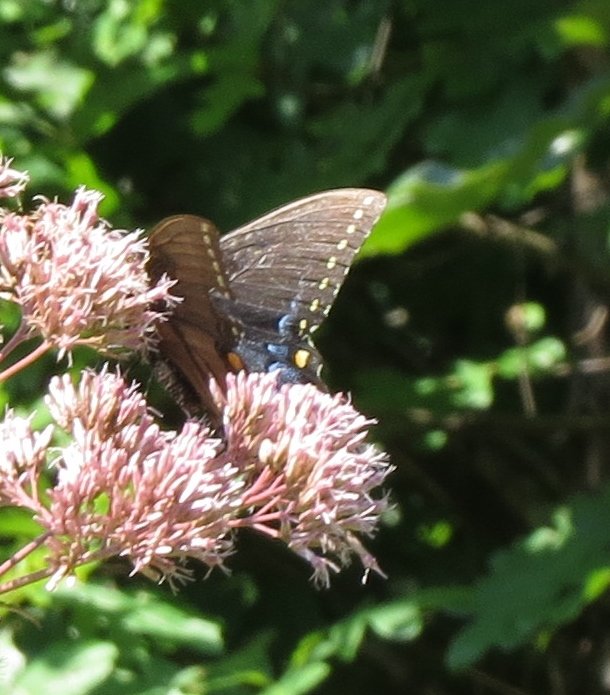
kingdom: Animalia
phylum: Arthropoda
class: Insecta
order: Lepidoptera
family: Papilionidae
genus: Pterourus
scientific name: Pterourus glaucus
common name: Eastern Tiger Swallowtail
